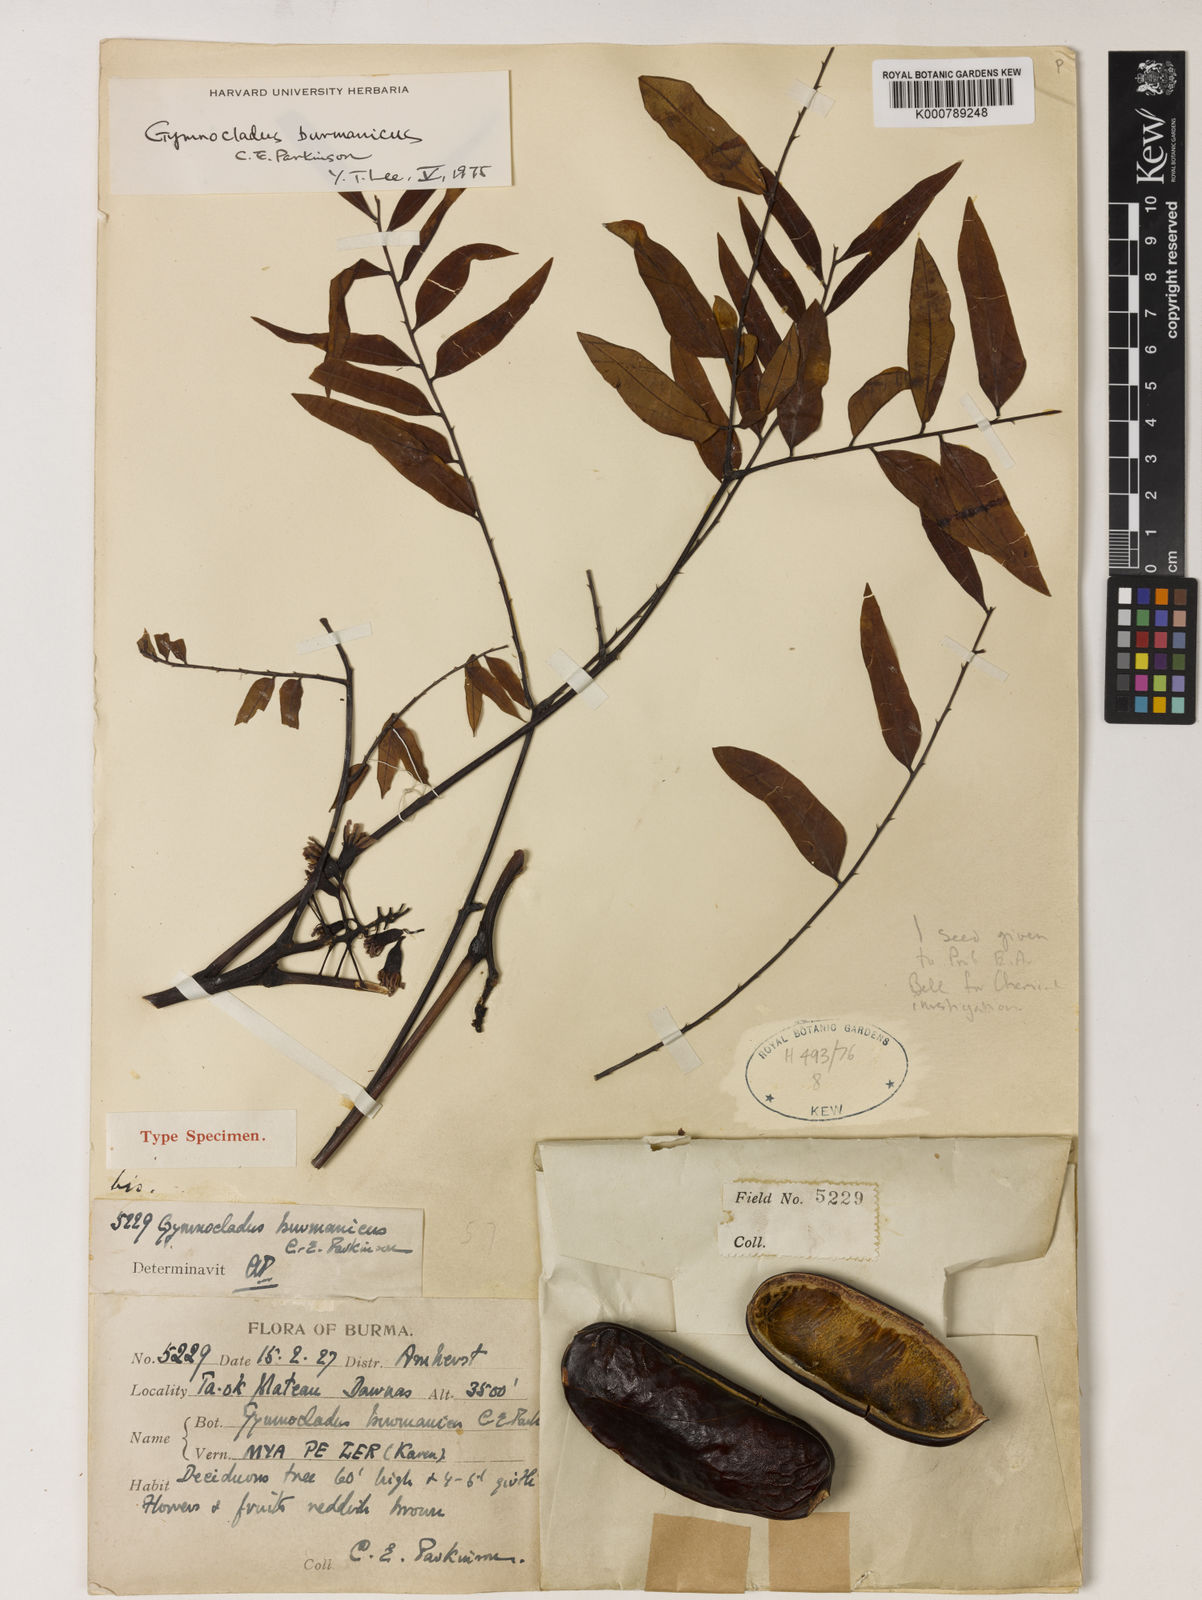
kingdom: Plantae
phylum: Tracheophyta
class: Magnoliopsida
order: Fabales
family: Fabaceae
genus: Gymnocladus
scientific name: Gymnocladus burmanicus
